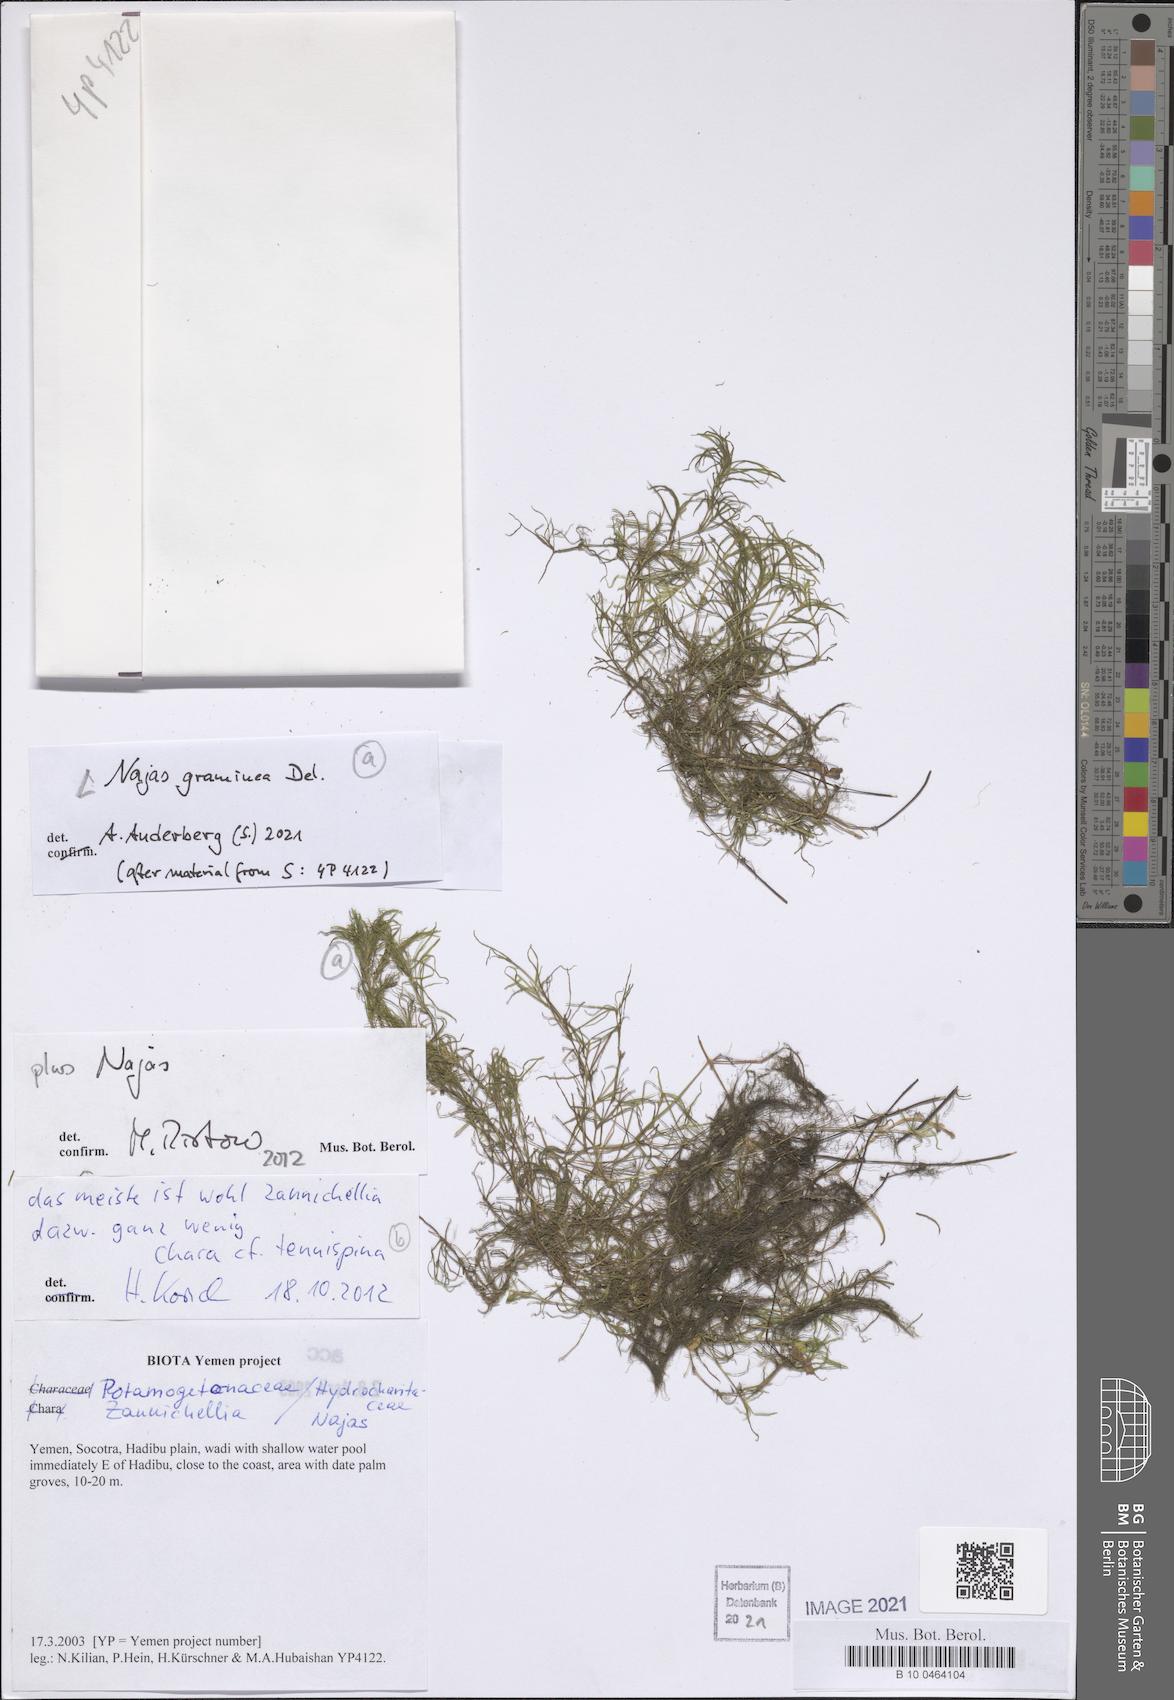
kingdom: Plantae
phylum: Tracheophyta
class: Liliopsida
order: Alismatales
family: Hydrocharitaceae
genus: Najas
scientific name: Najas graminea
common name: Ricefield waternymph
